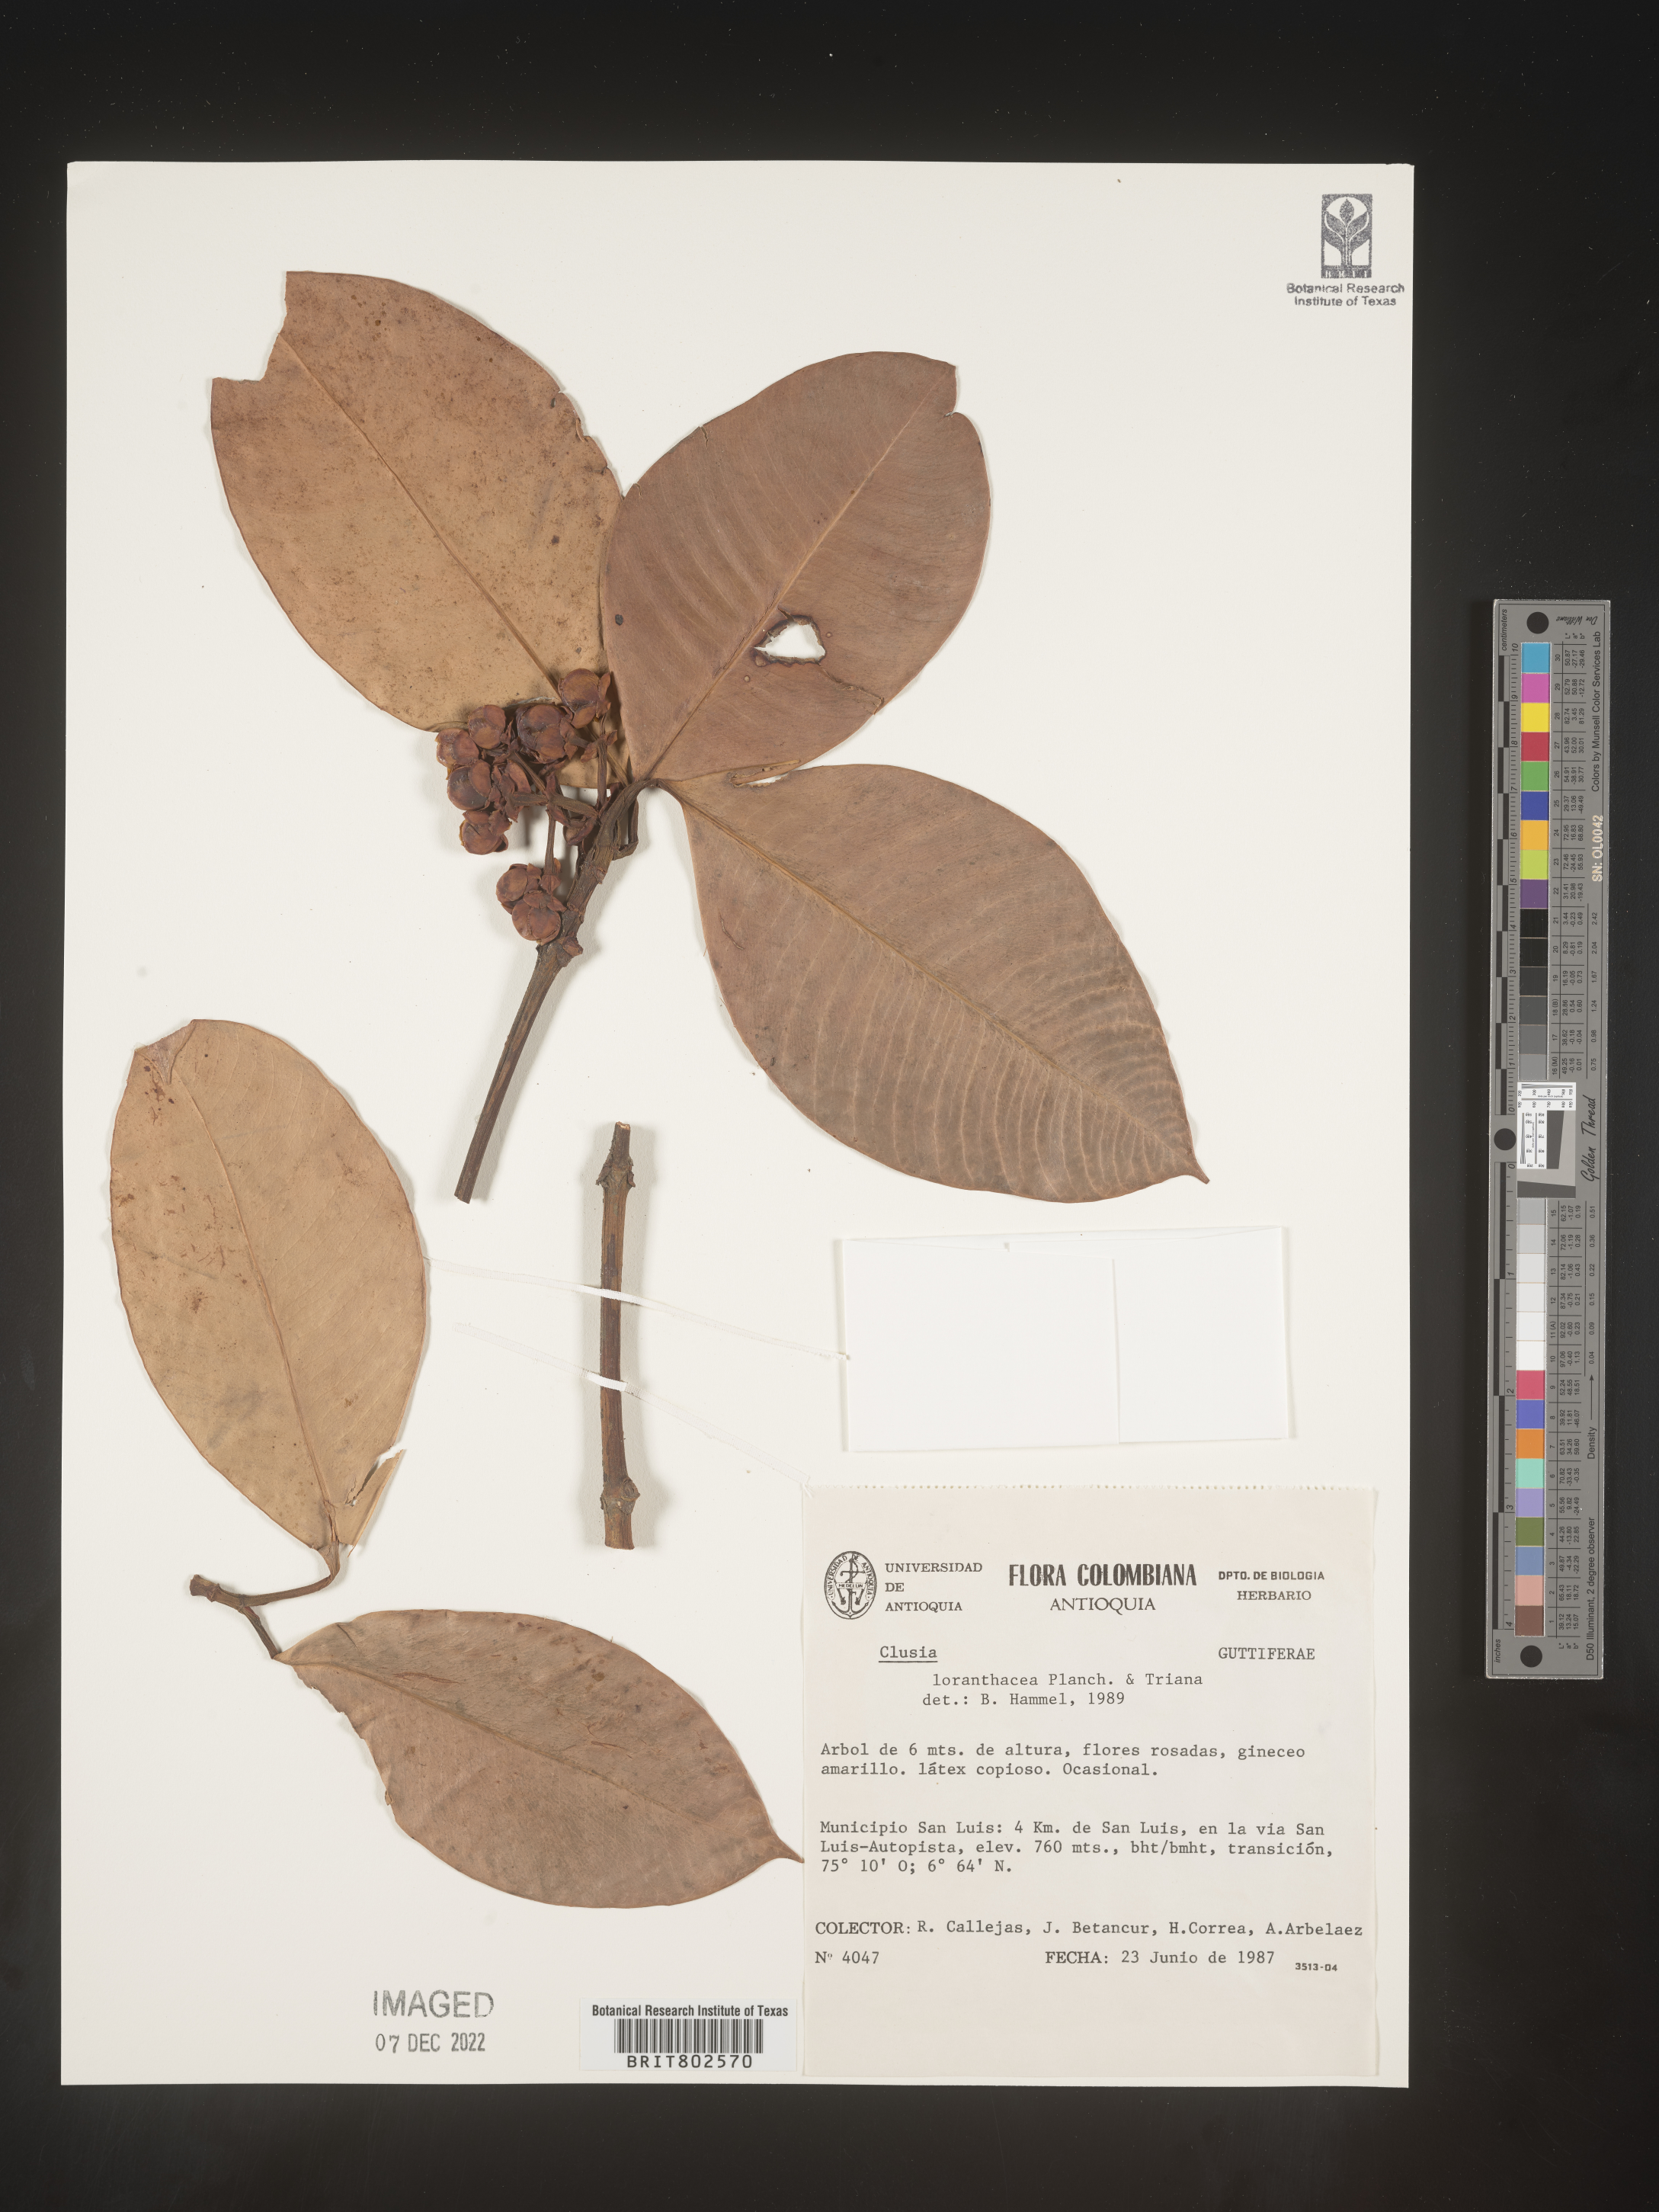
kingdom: Plantae
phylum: Tracheophyta
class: Magnoliopsida
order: Malpighiales
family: Clusiaceae
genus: Clusia
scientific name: Clusia loranthacea
